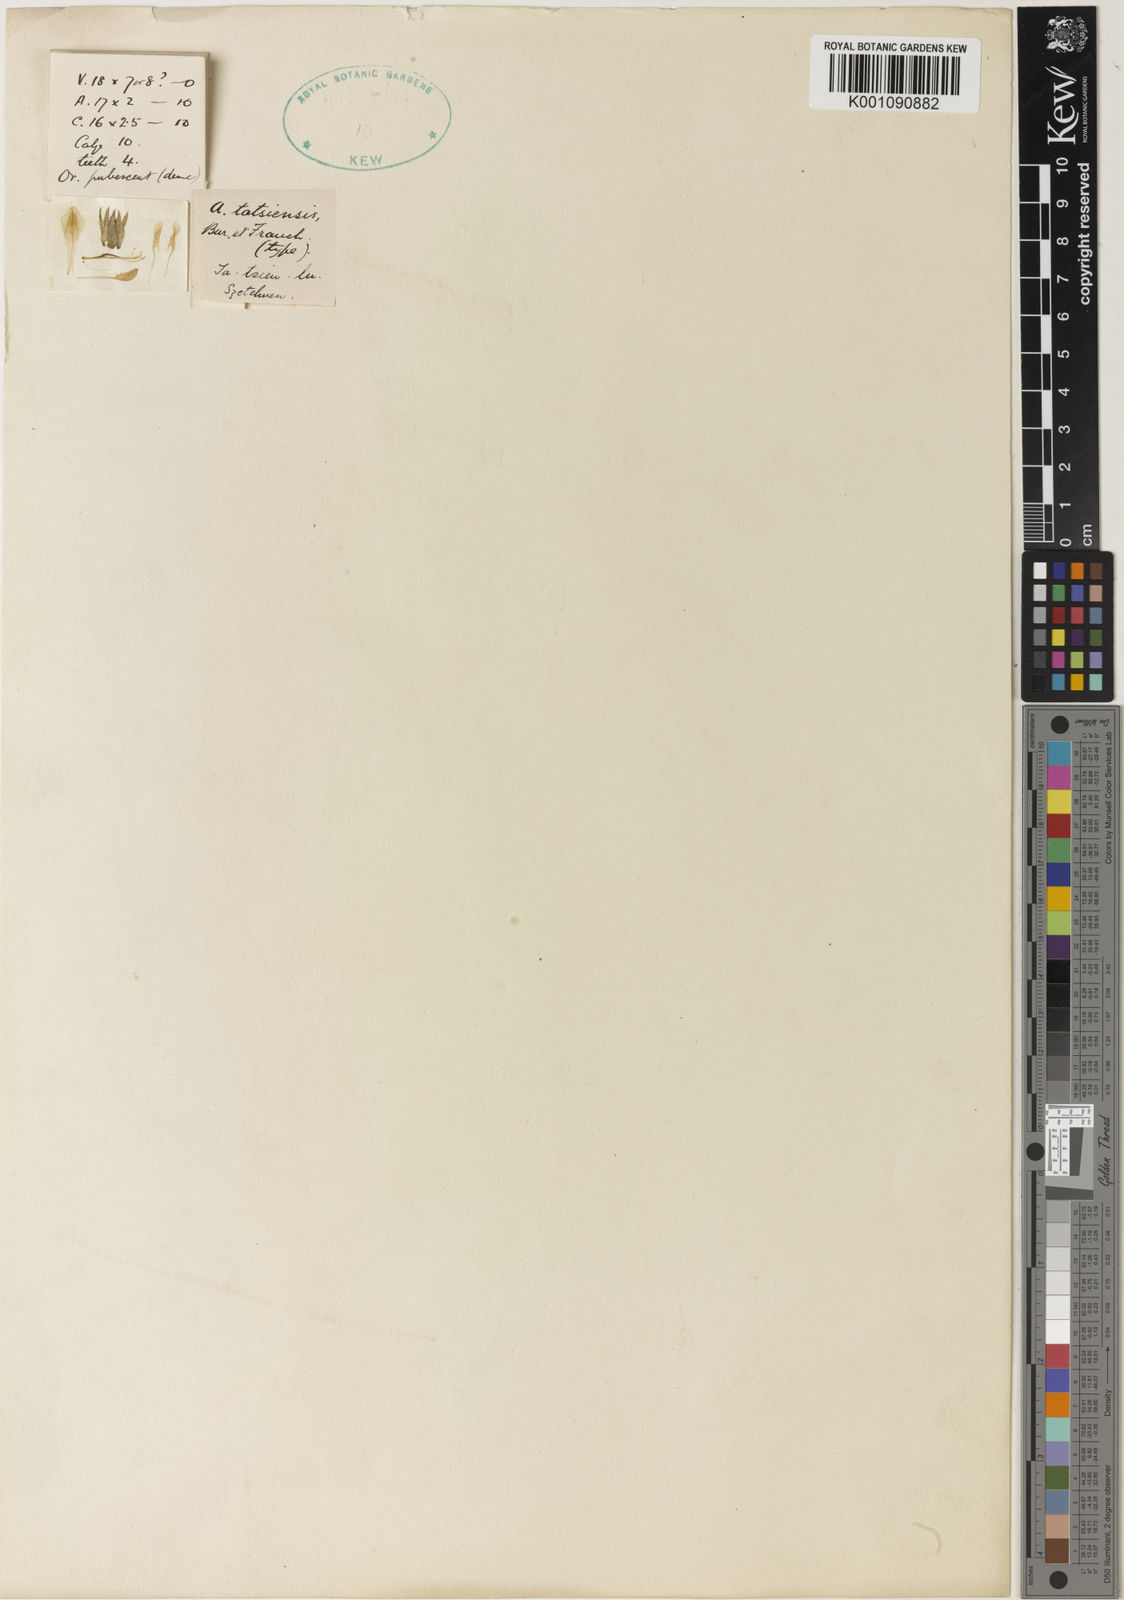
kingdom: Plantae
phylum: Tracheophyta
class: Magnoliopsida
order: Fabales
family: Fabaceae
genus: Astragalus
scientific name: Astragalus
